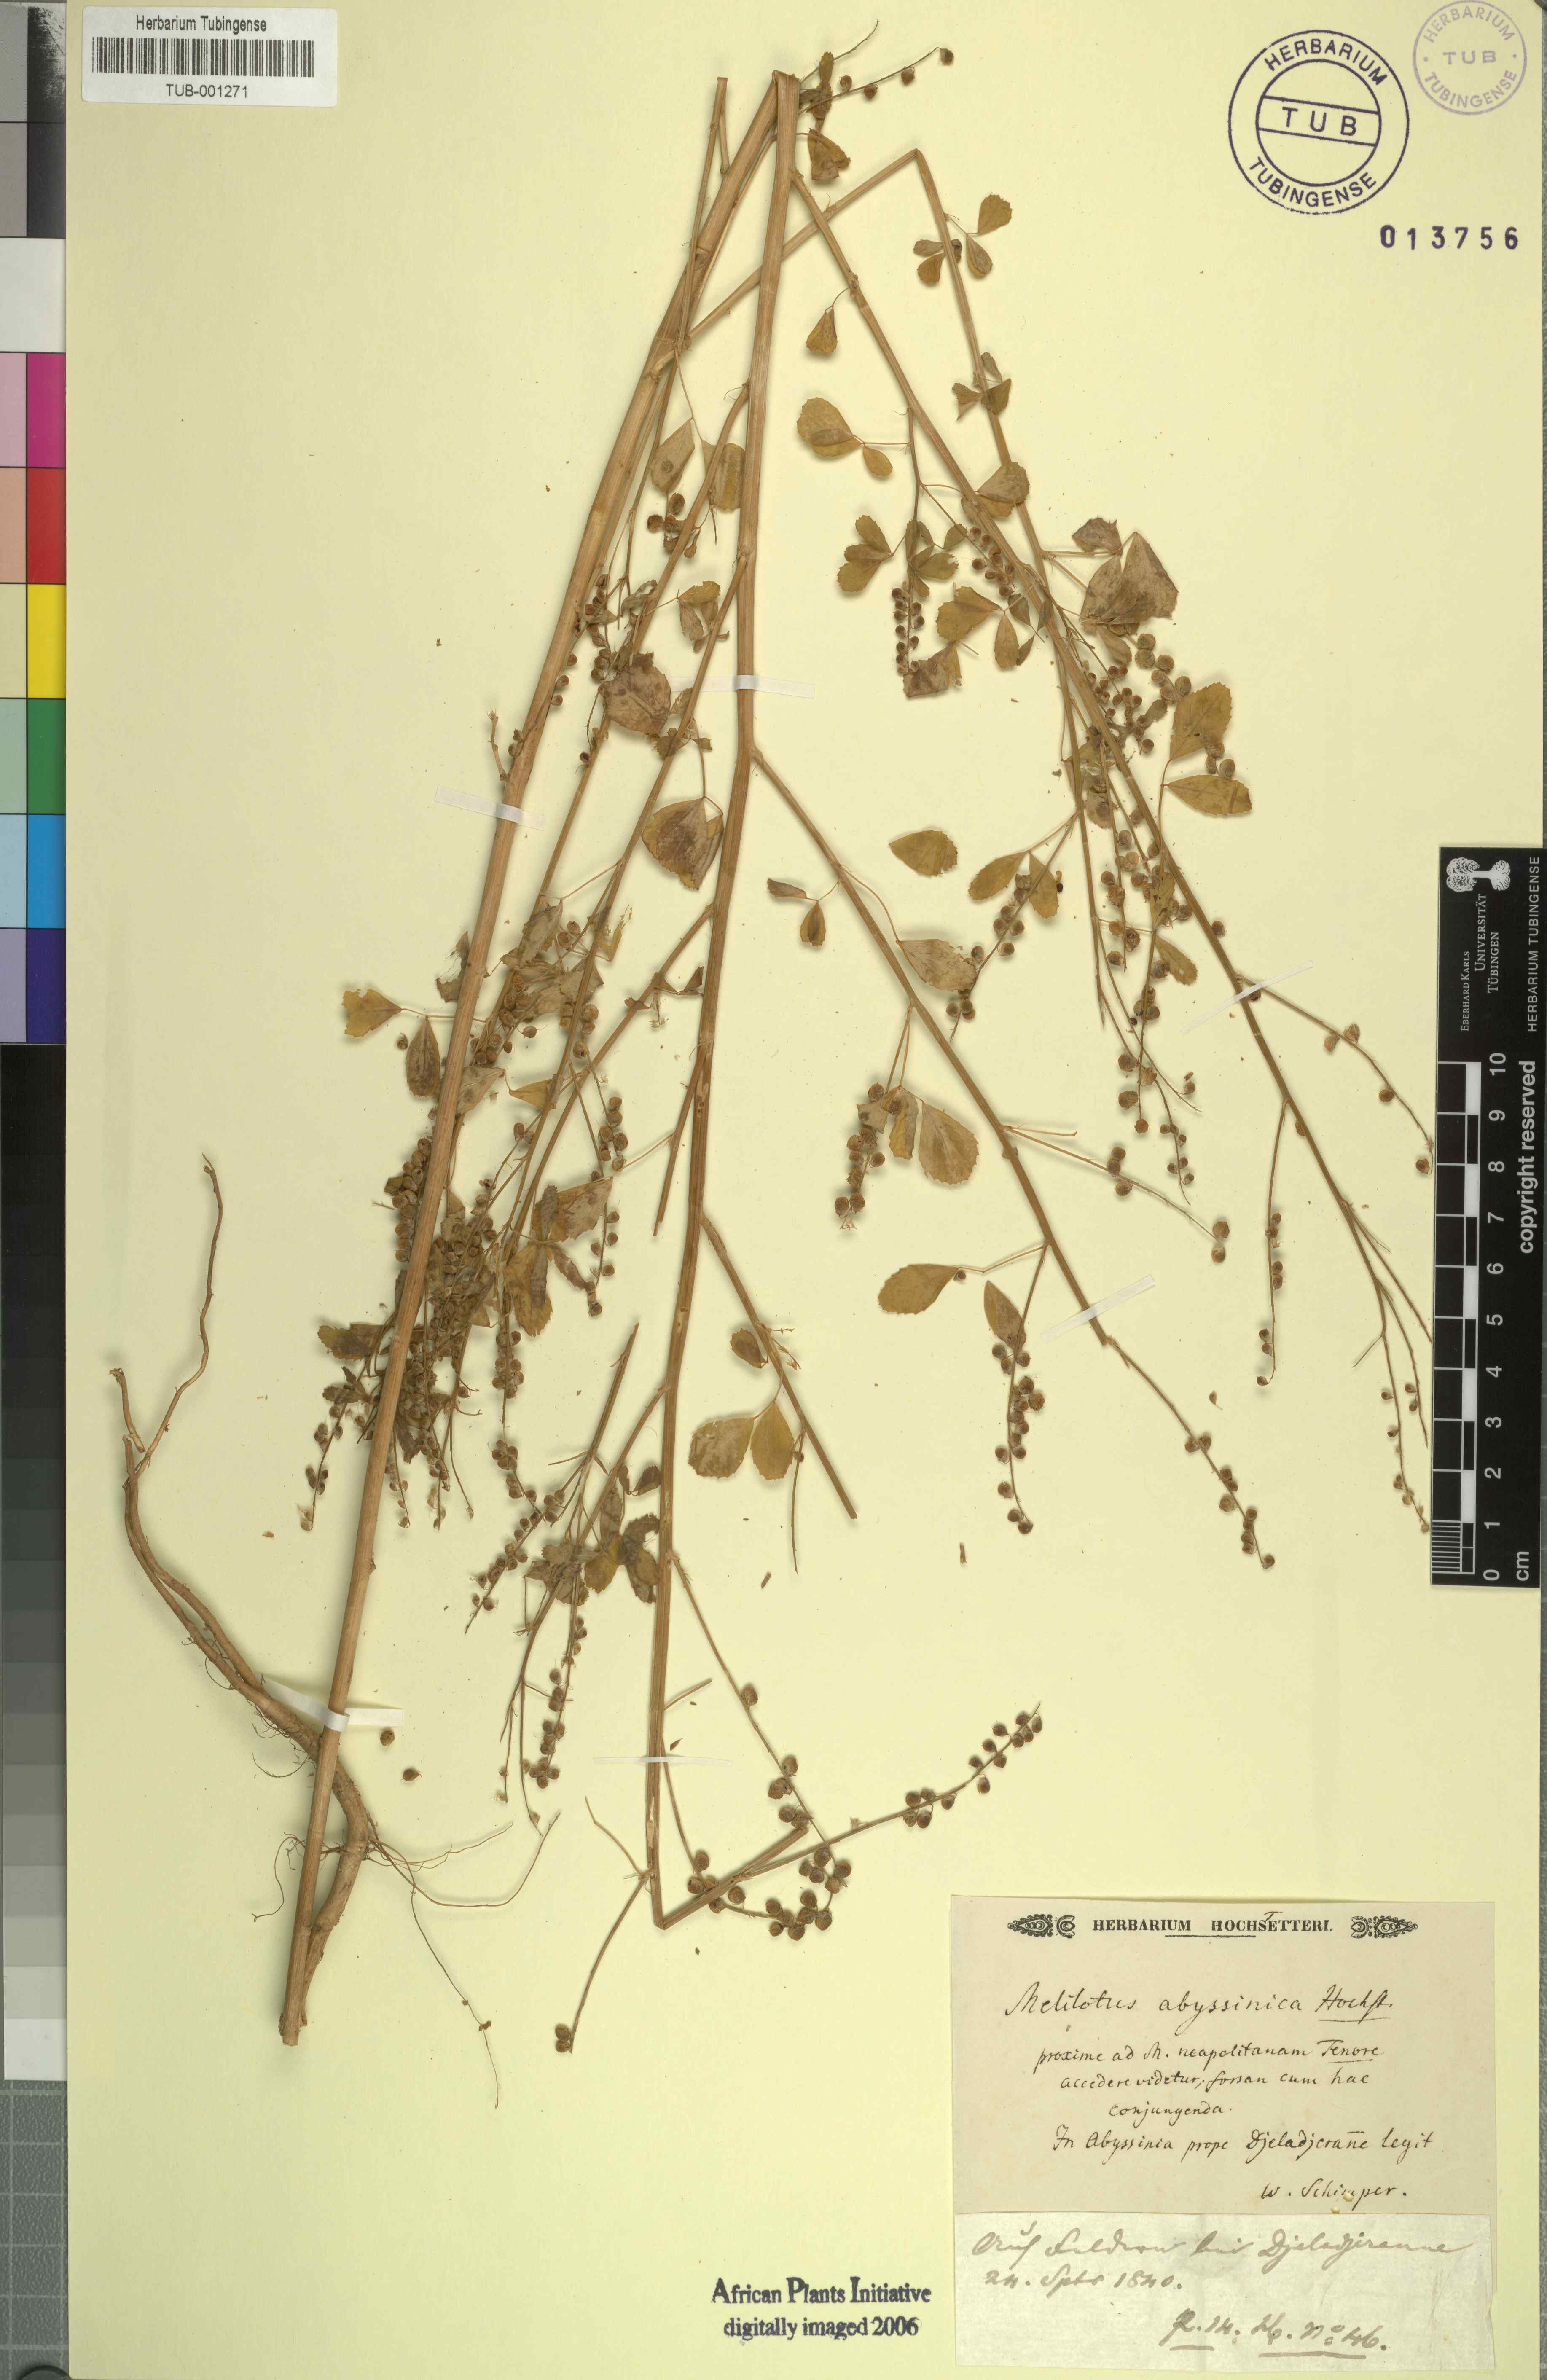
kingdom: Plantae
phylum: Tracheophyta
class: Magnoliopsida
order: Fabales
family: Fabaceae
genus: Melilotus
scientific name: Melilotus elegans
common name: Elegant sweet-clover
